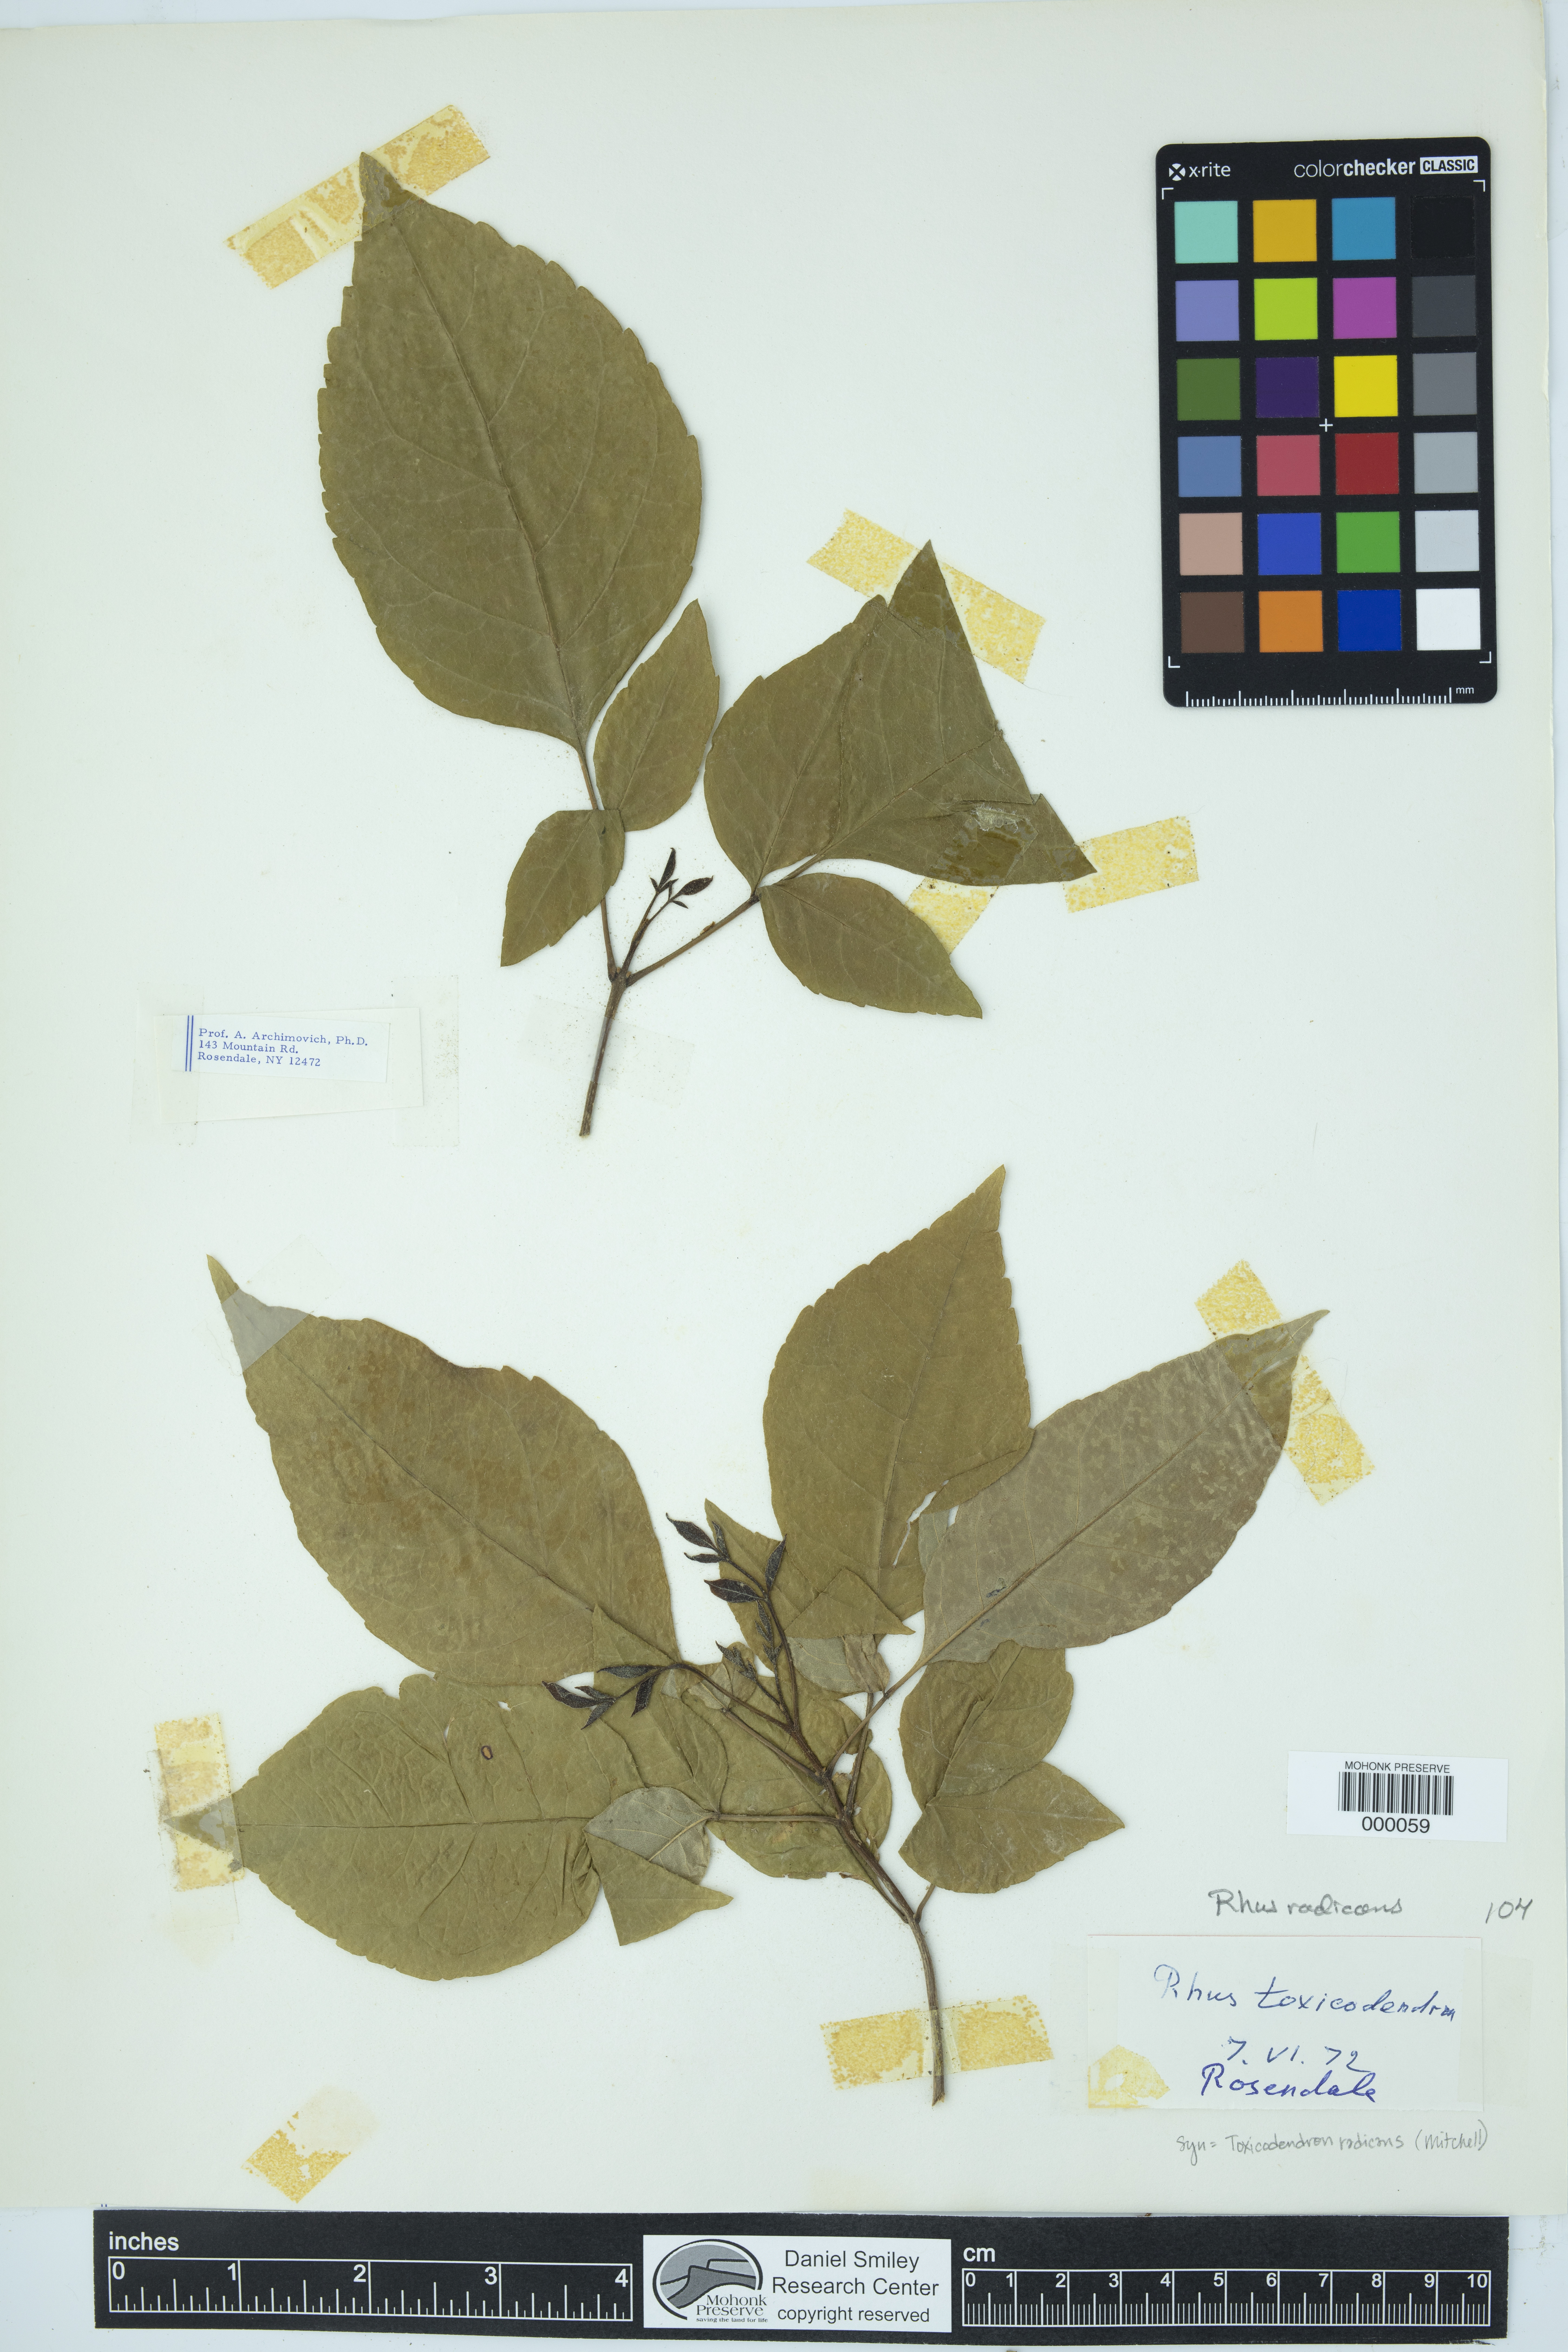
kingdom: Plantae
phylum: Tracheophyta
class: Magnoliopsida
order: Sapindales
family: Anacardiaceae
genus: Toxicodendron
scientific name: Toxicodendron radicans
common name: Poison ivy
